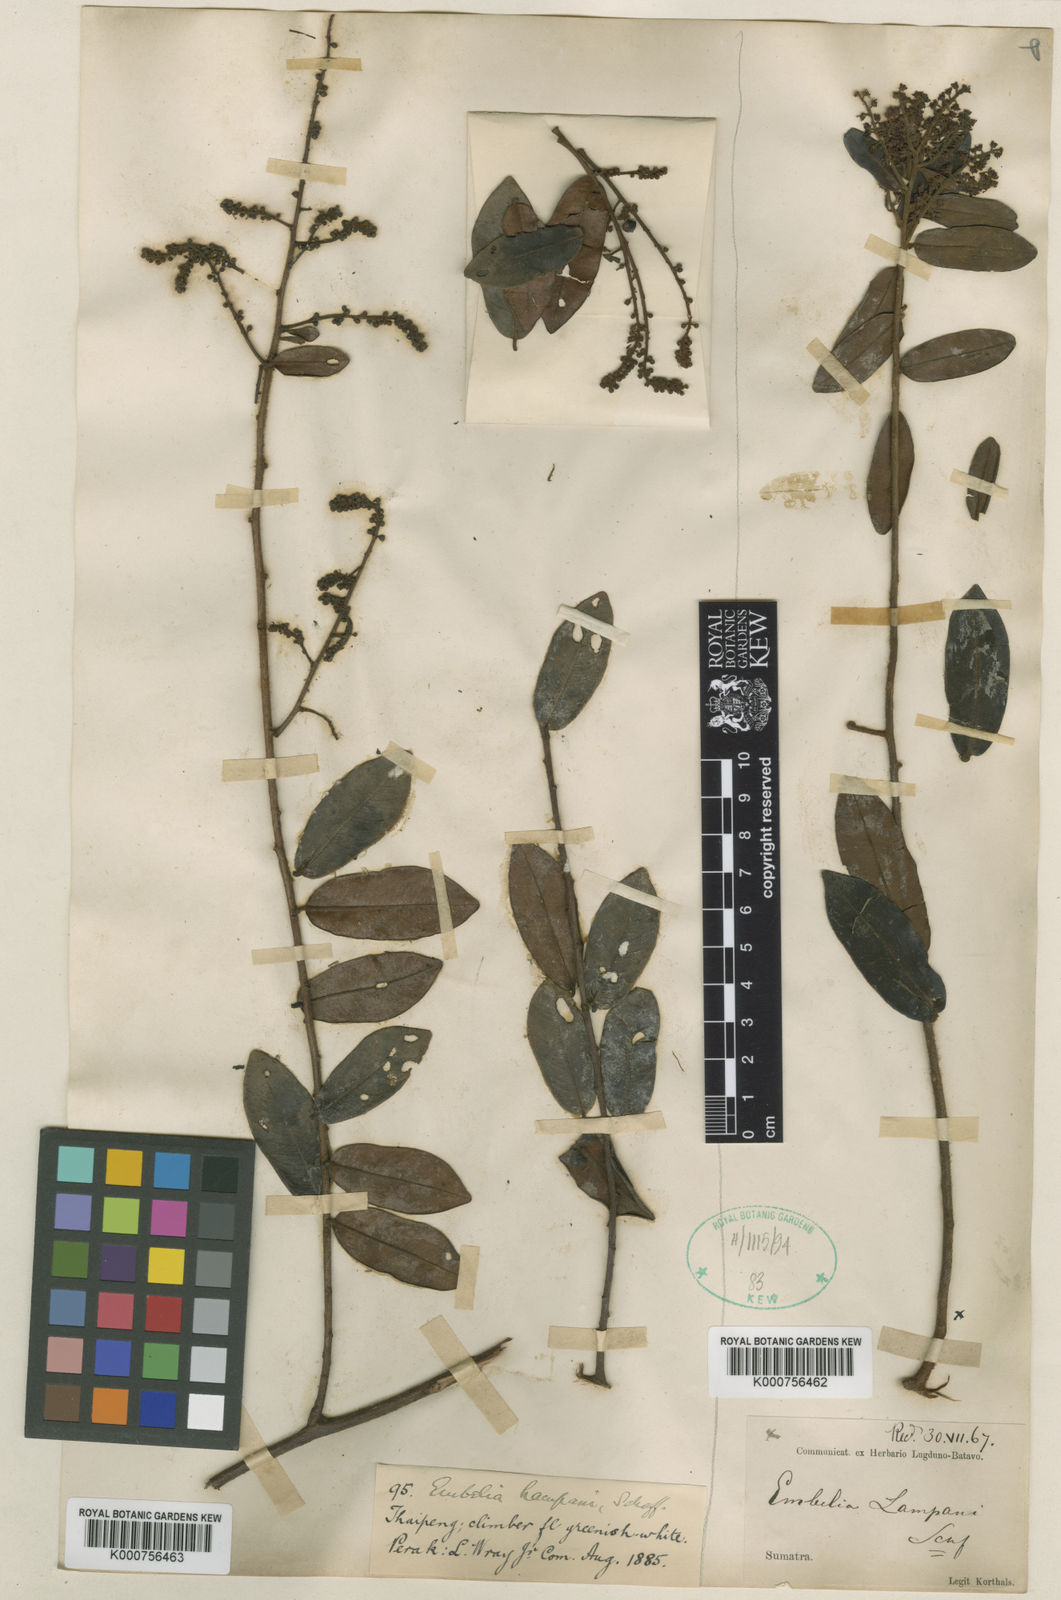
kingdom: Plantae
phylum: Tracheophyta
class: Magnoliopsida
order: Ericales
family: Primulaceae
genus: Grenacheria
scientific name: Grenacheria lampani
